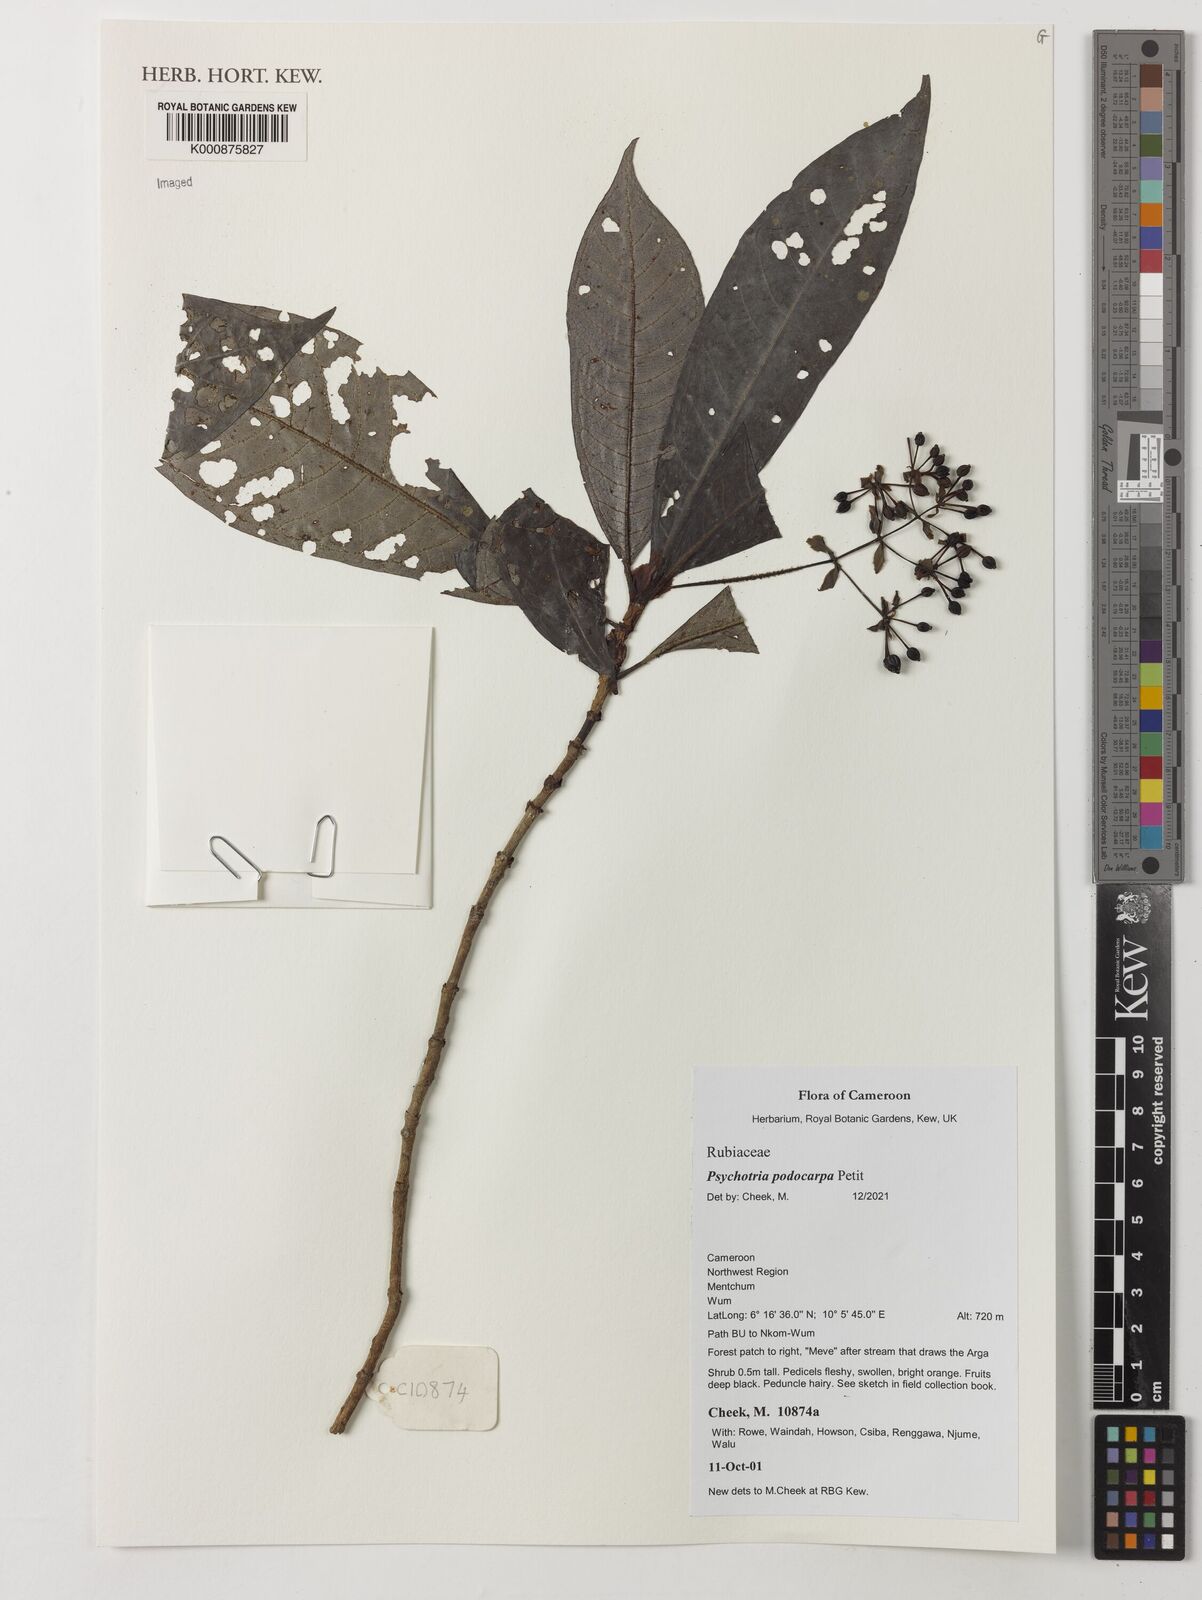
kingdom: Plantae
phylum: Tracheophyta
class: Magnoliopsida
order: Gentianales
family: Rubiaceae
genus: Psychotria
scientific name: Psychotria podocarpa
